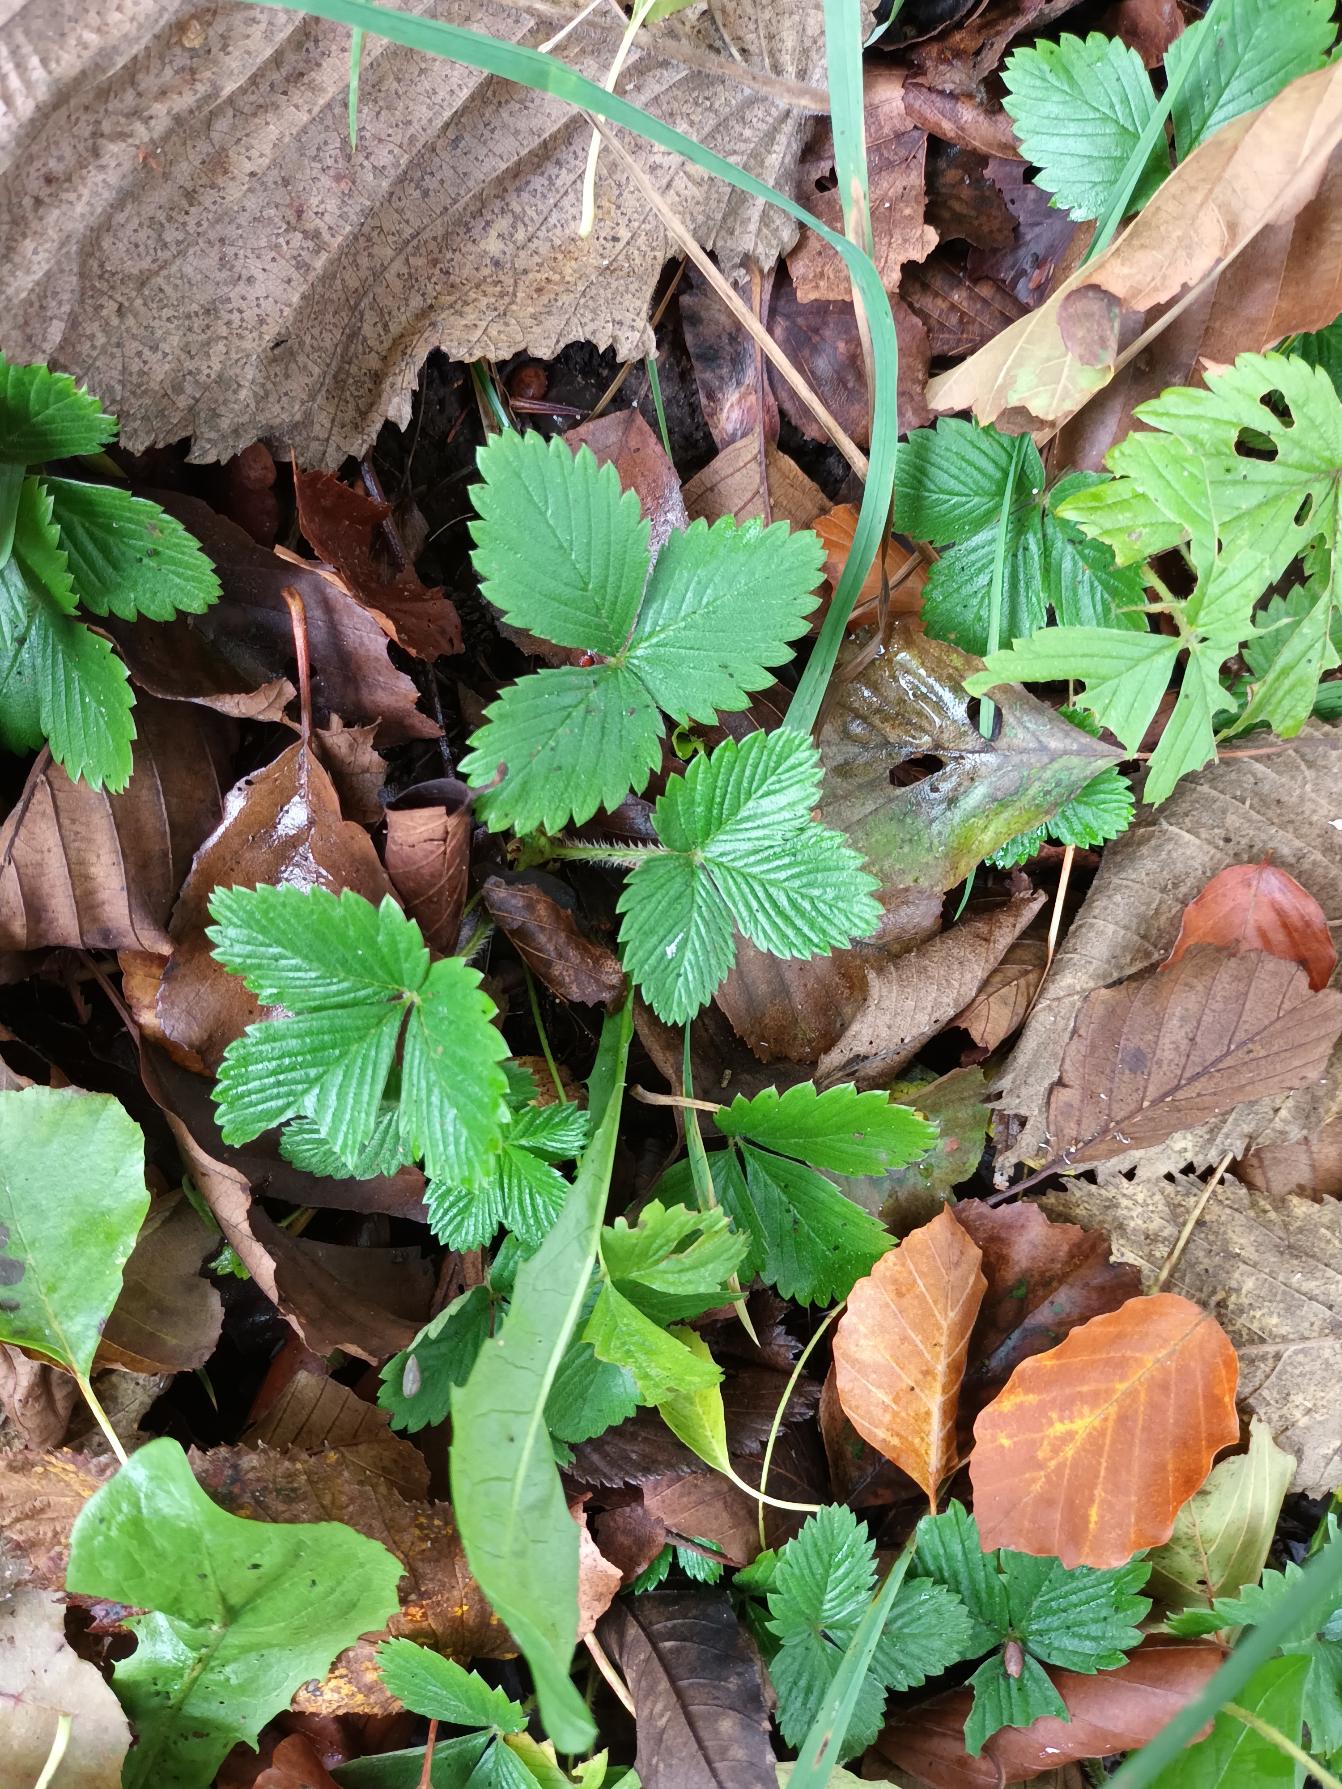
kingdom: Plantae
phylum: Tracheophyta
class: Magnoliopsida
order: Rosales
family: Rosaceae
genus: Fragaria
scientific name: Fragaria vesca
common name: Skov-jordbær
